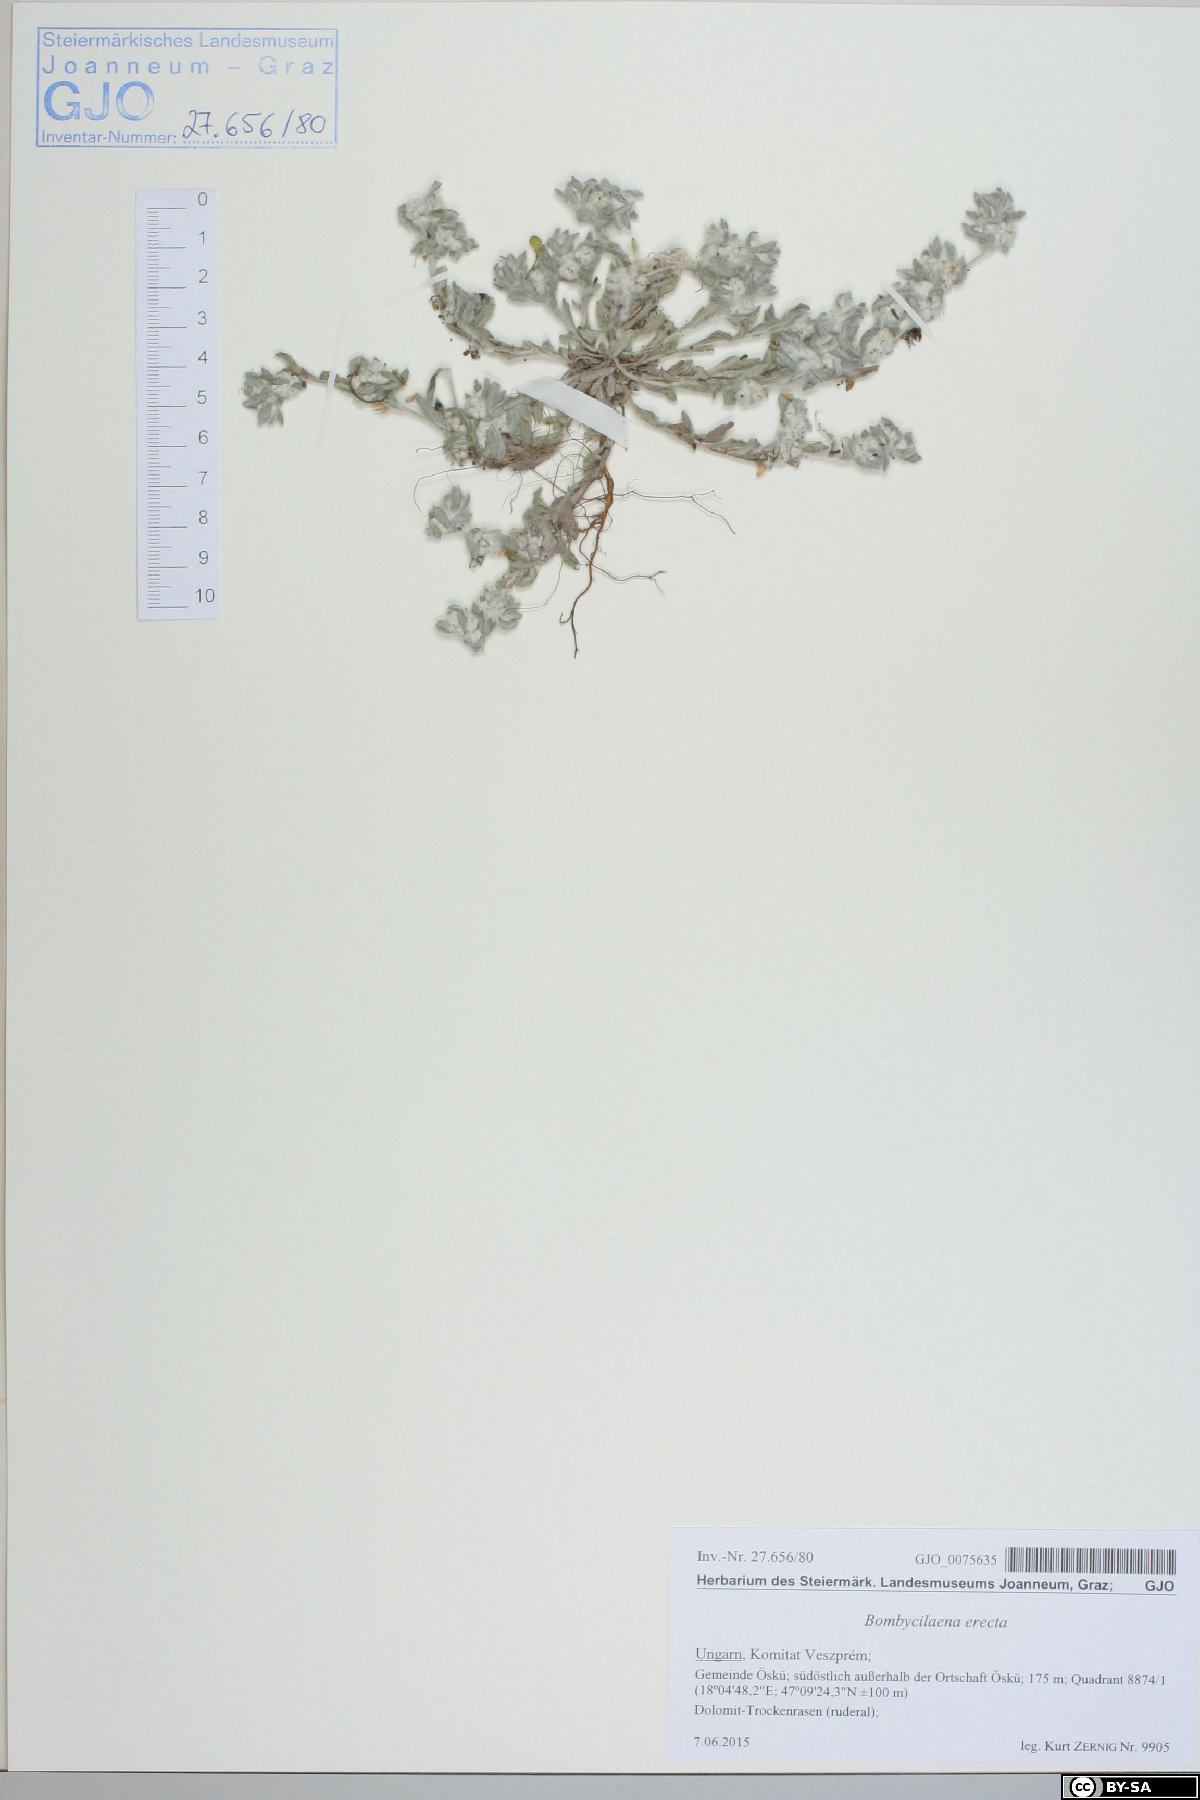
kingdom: Plantae
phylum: Tracheophyta
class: Magnoliopsida
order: Asterales
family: Asteraceae
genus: Bombycilaena
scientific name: Bombycilaena erecta
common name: Micropus
